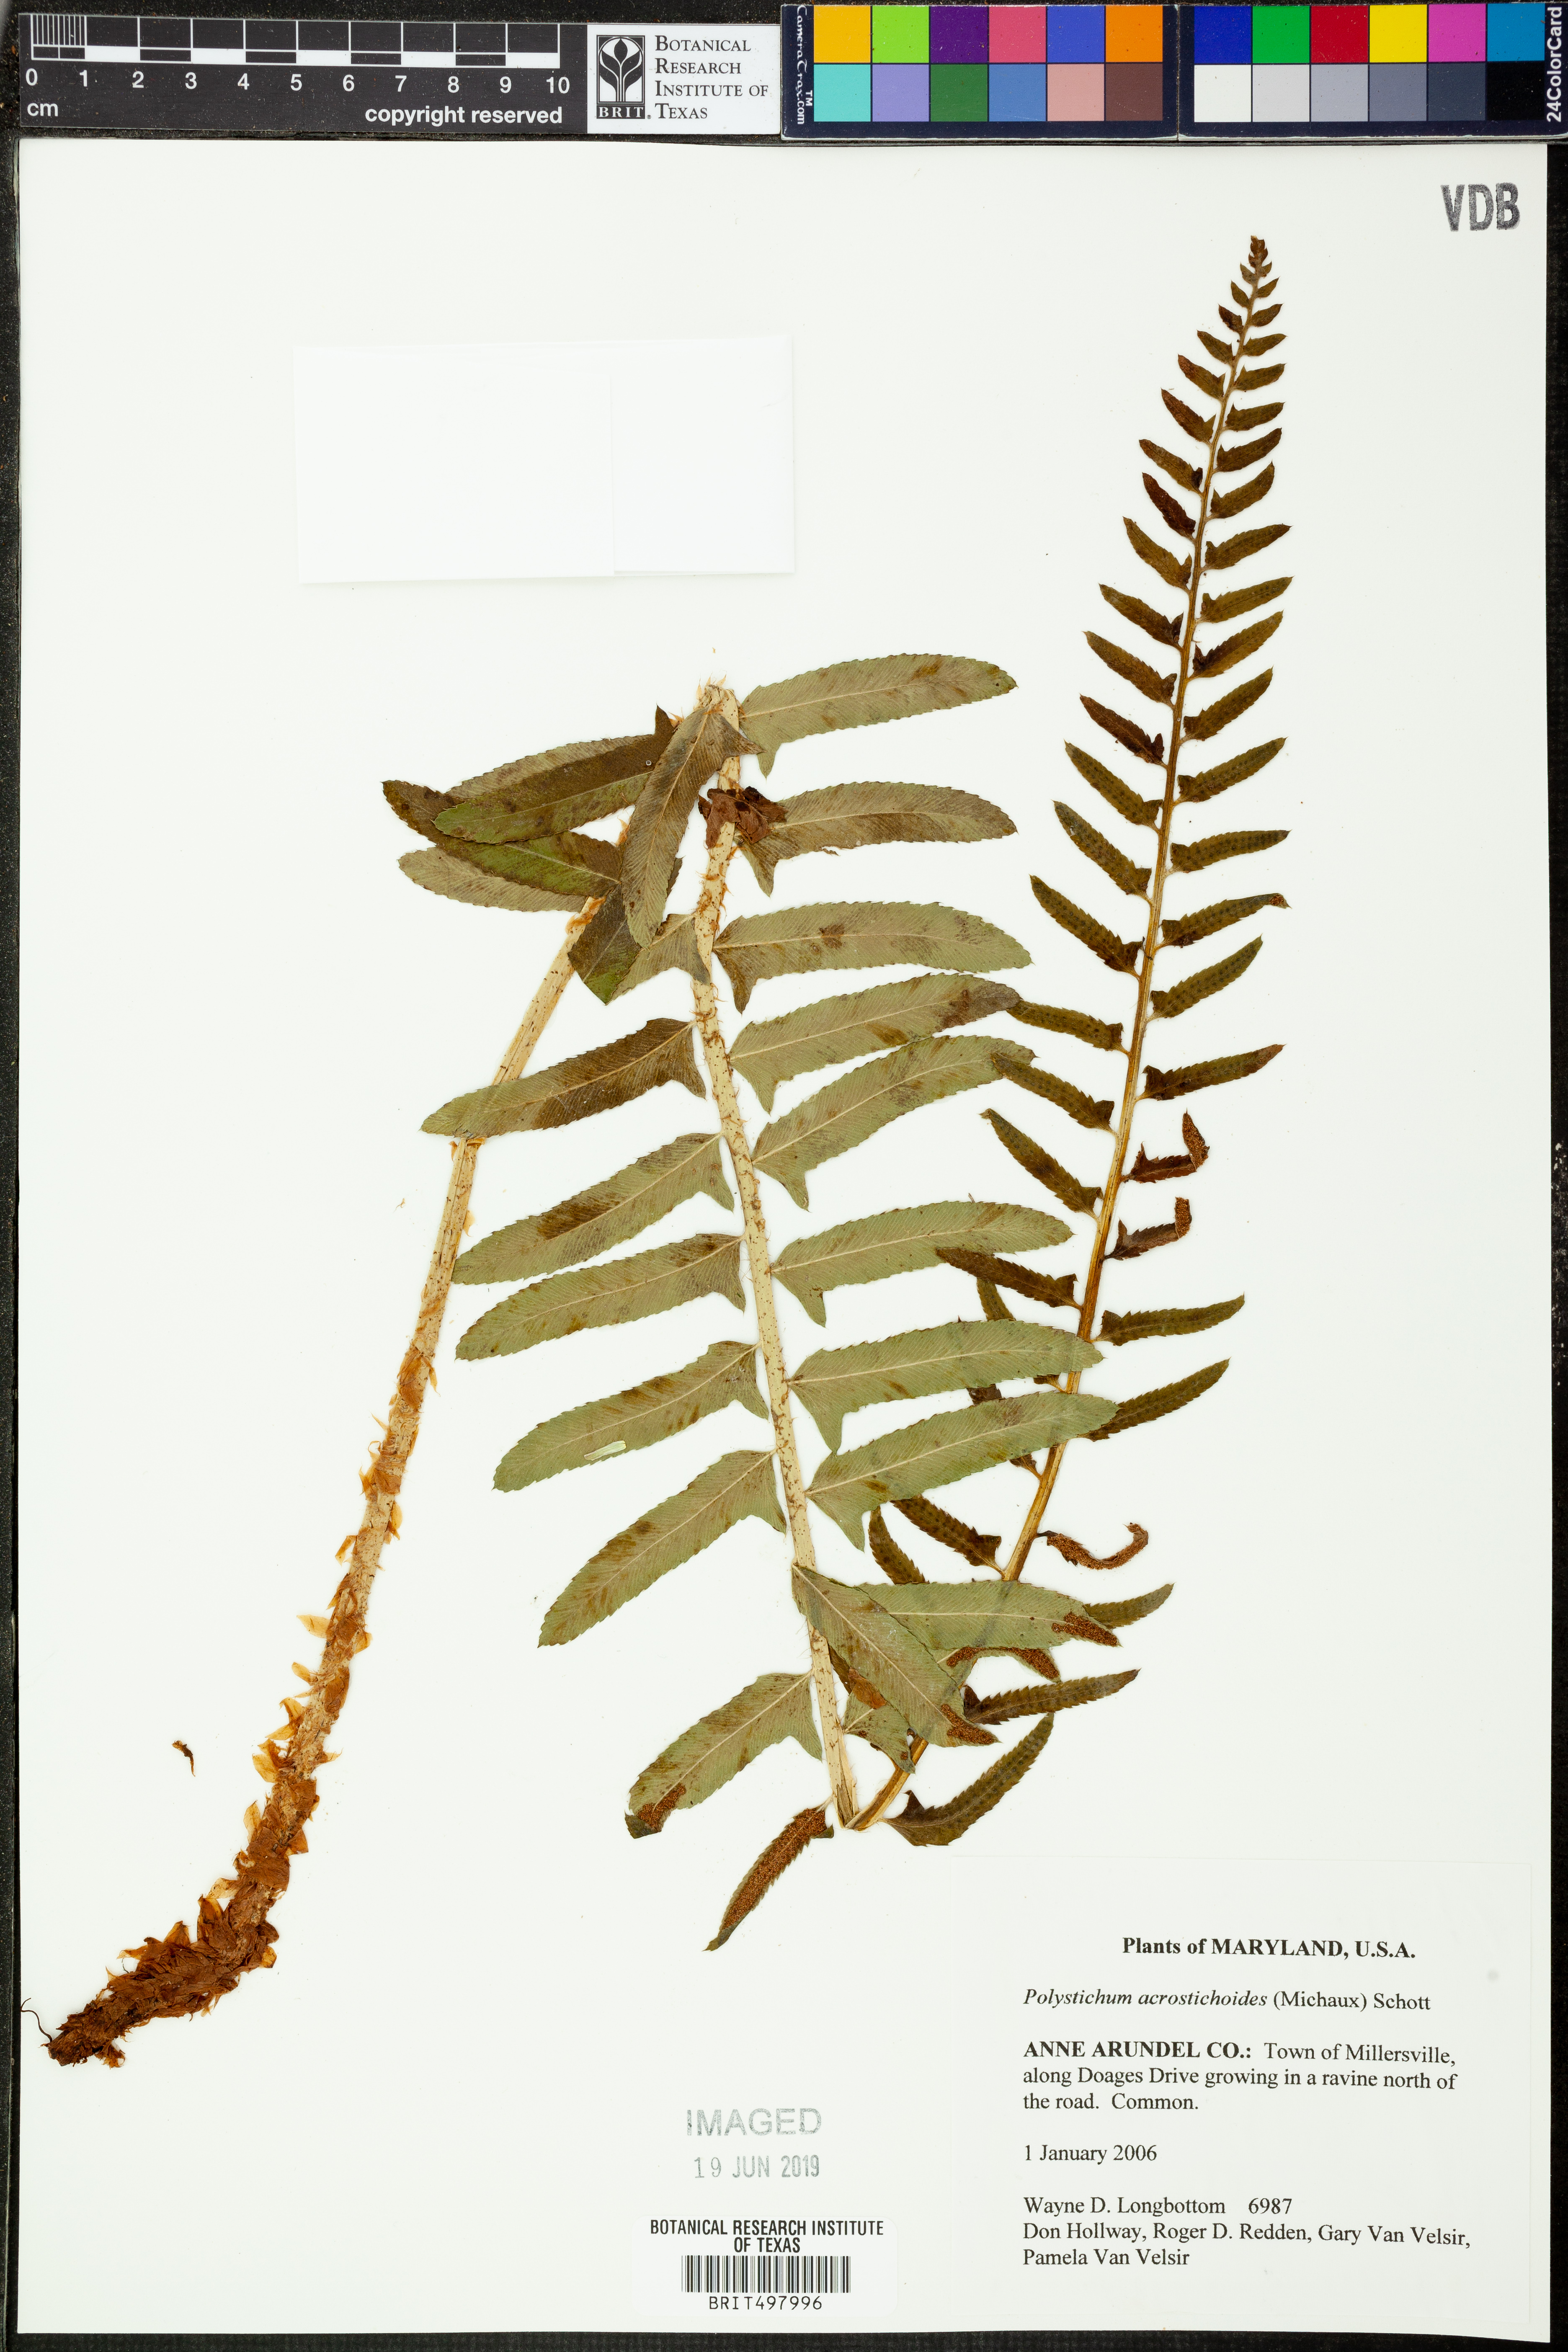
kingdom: Plantae
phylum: Tracheophyta
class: Polypodiopsida
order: Polypodiales
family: Dryopteridaceae
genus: Polystichum
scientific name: Polystichum acrostichoides
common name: Christmas fern
